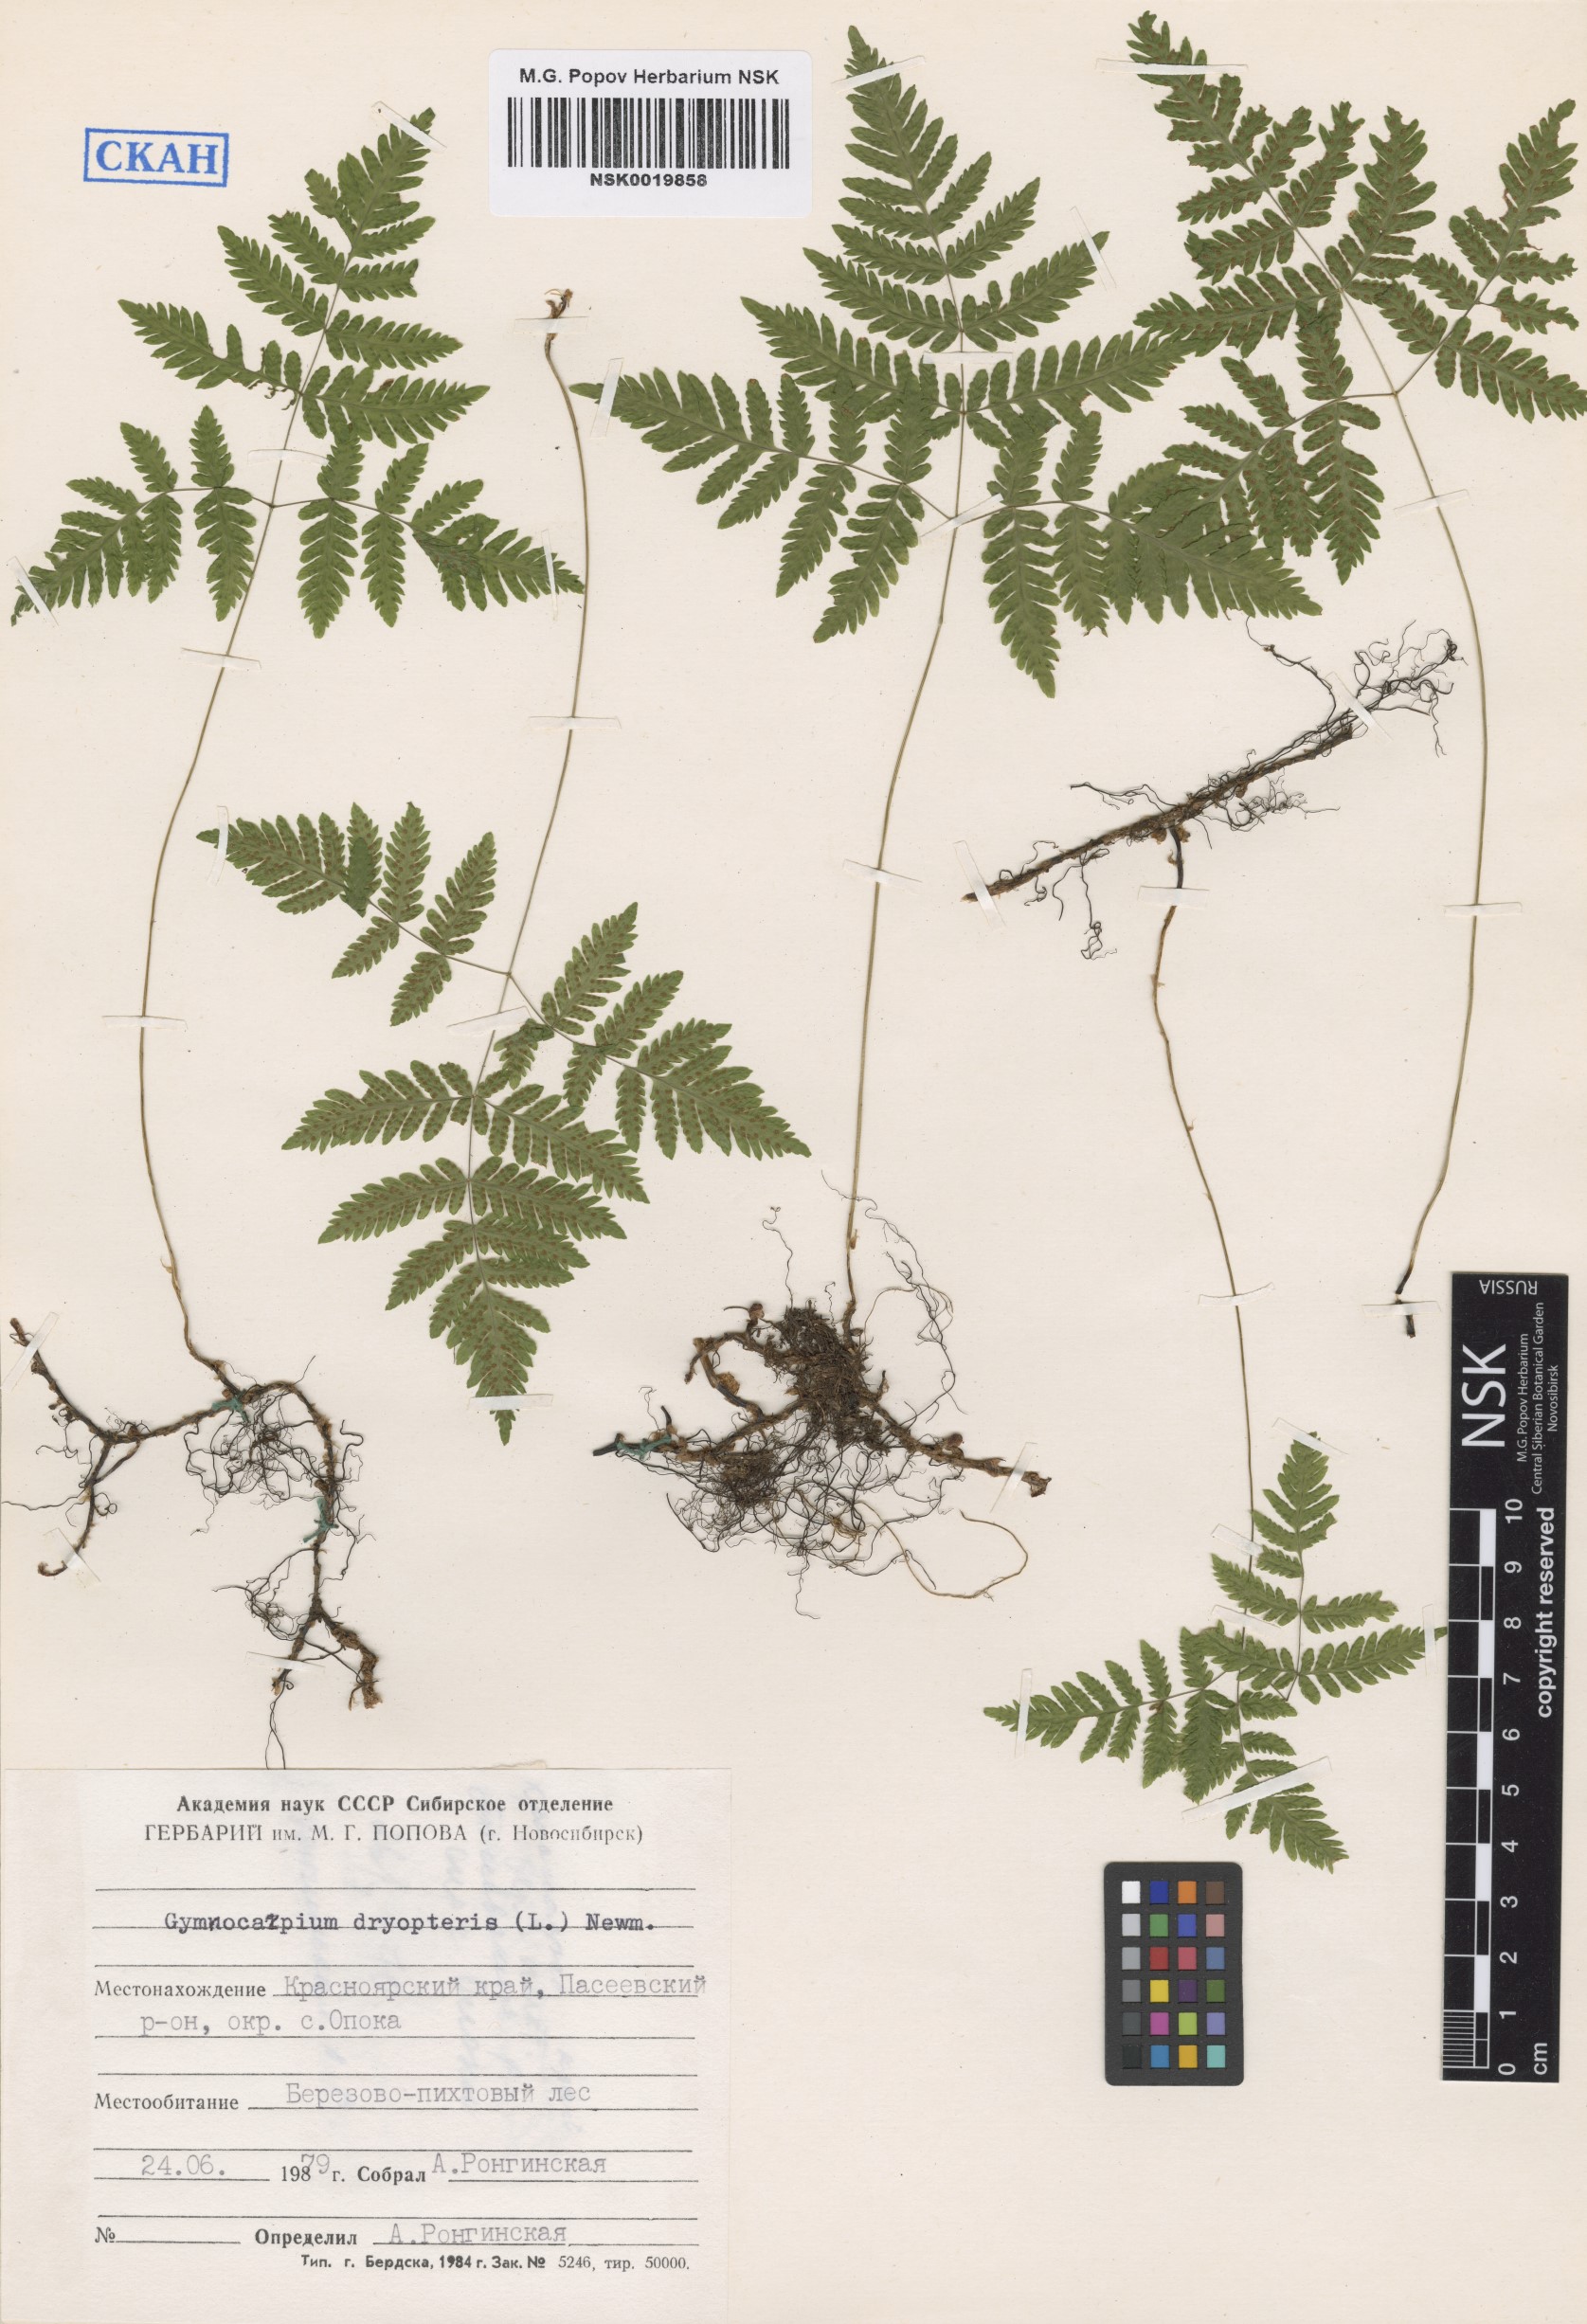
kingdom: Plantae
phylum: Tracheophyta
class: Polypodiopsida
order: Polypodiales
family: Cystopteridaceae
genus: Gymnocarpium
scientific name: Gymnocarpium dryopteris
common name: Oak fern
